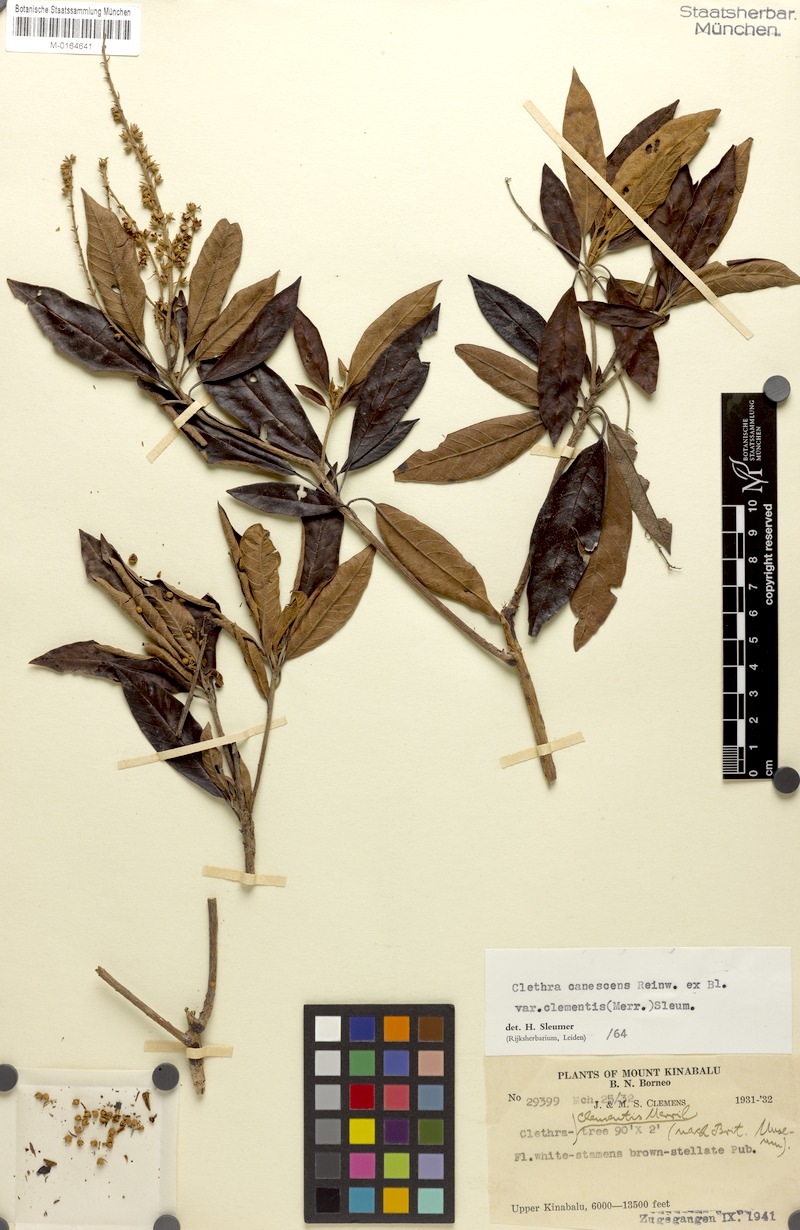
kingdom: Plantae
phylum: Tracheophyta
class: Magnoliopsida
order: Ericales
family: Clethraceae
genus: Clethra
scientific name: Clethra canescens
